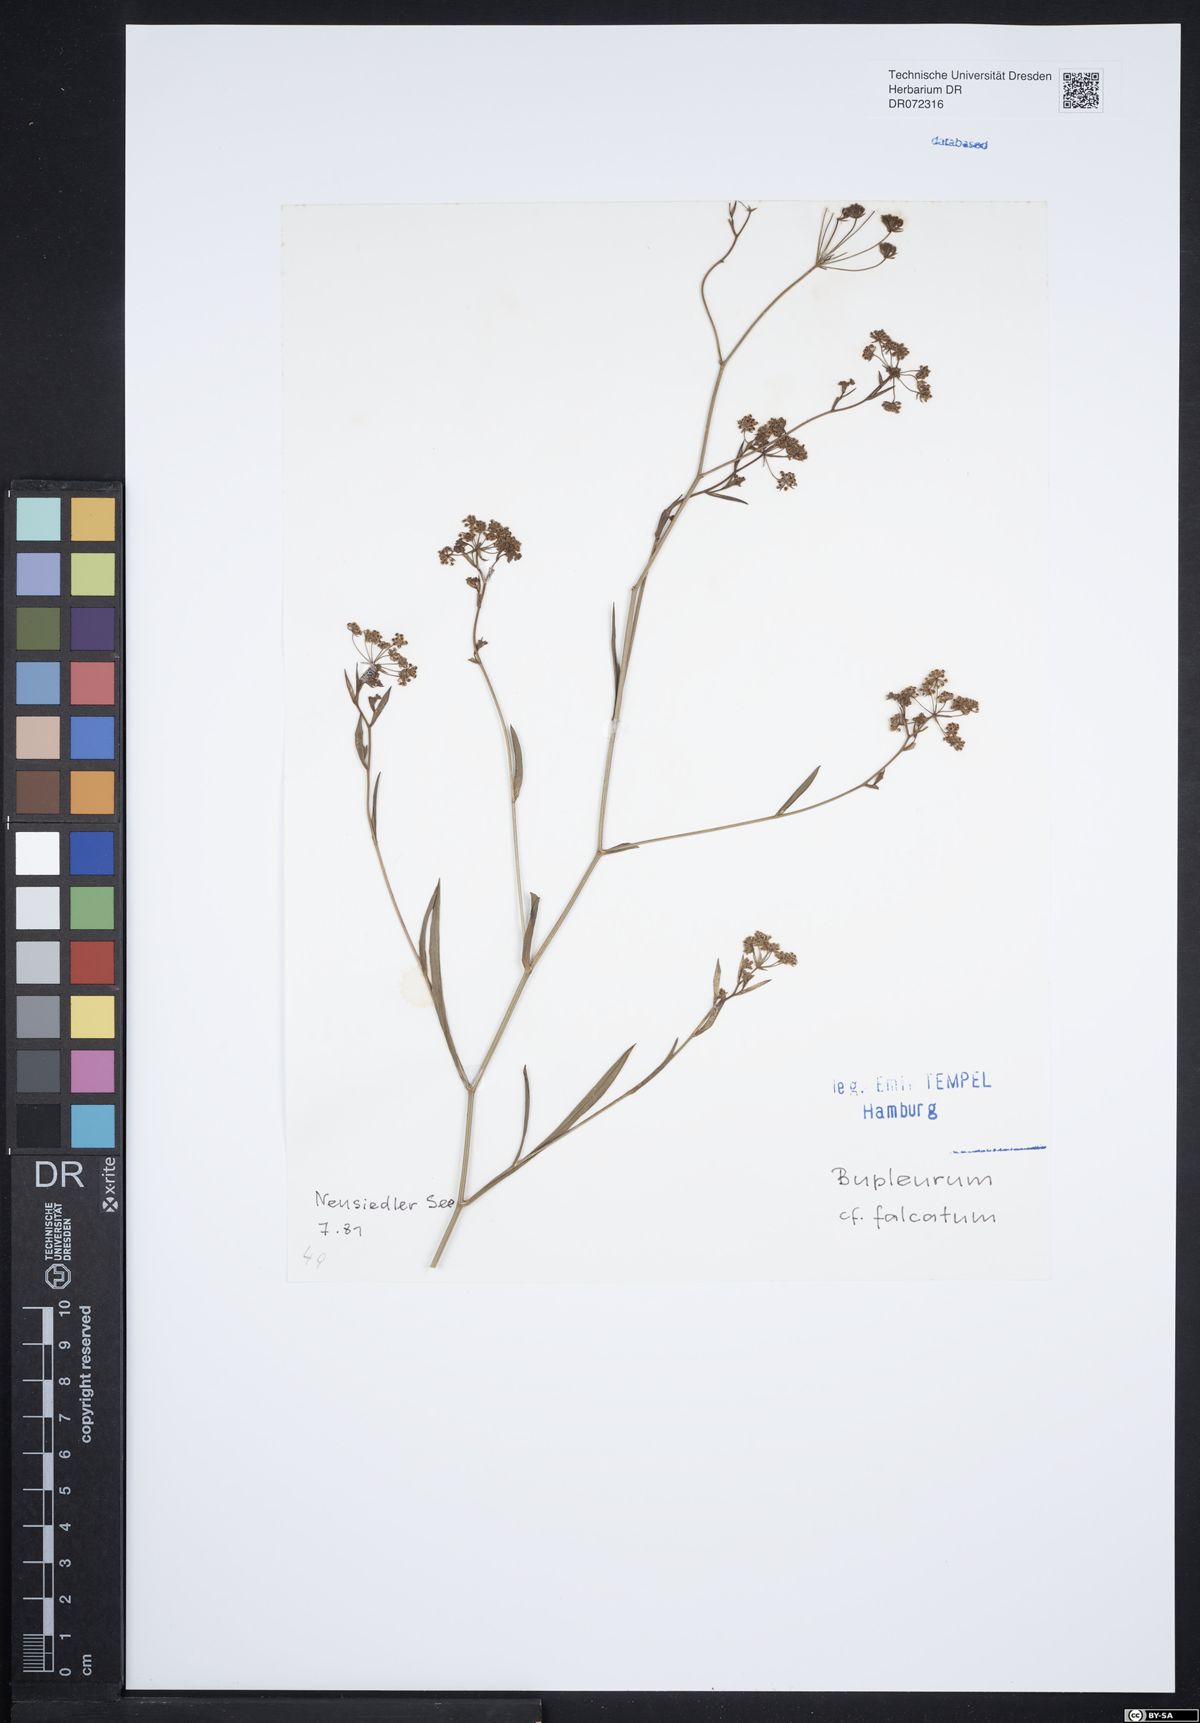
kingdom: Plantae
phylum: Tracheophyta
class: Magnoliopsida
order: Apiales
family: Apiaceae
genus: Bupleurum
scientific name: Bupleurum falcatum
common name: Sickle-leaved hare's-ear
